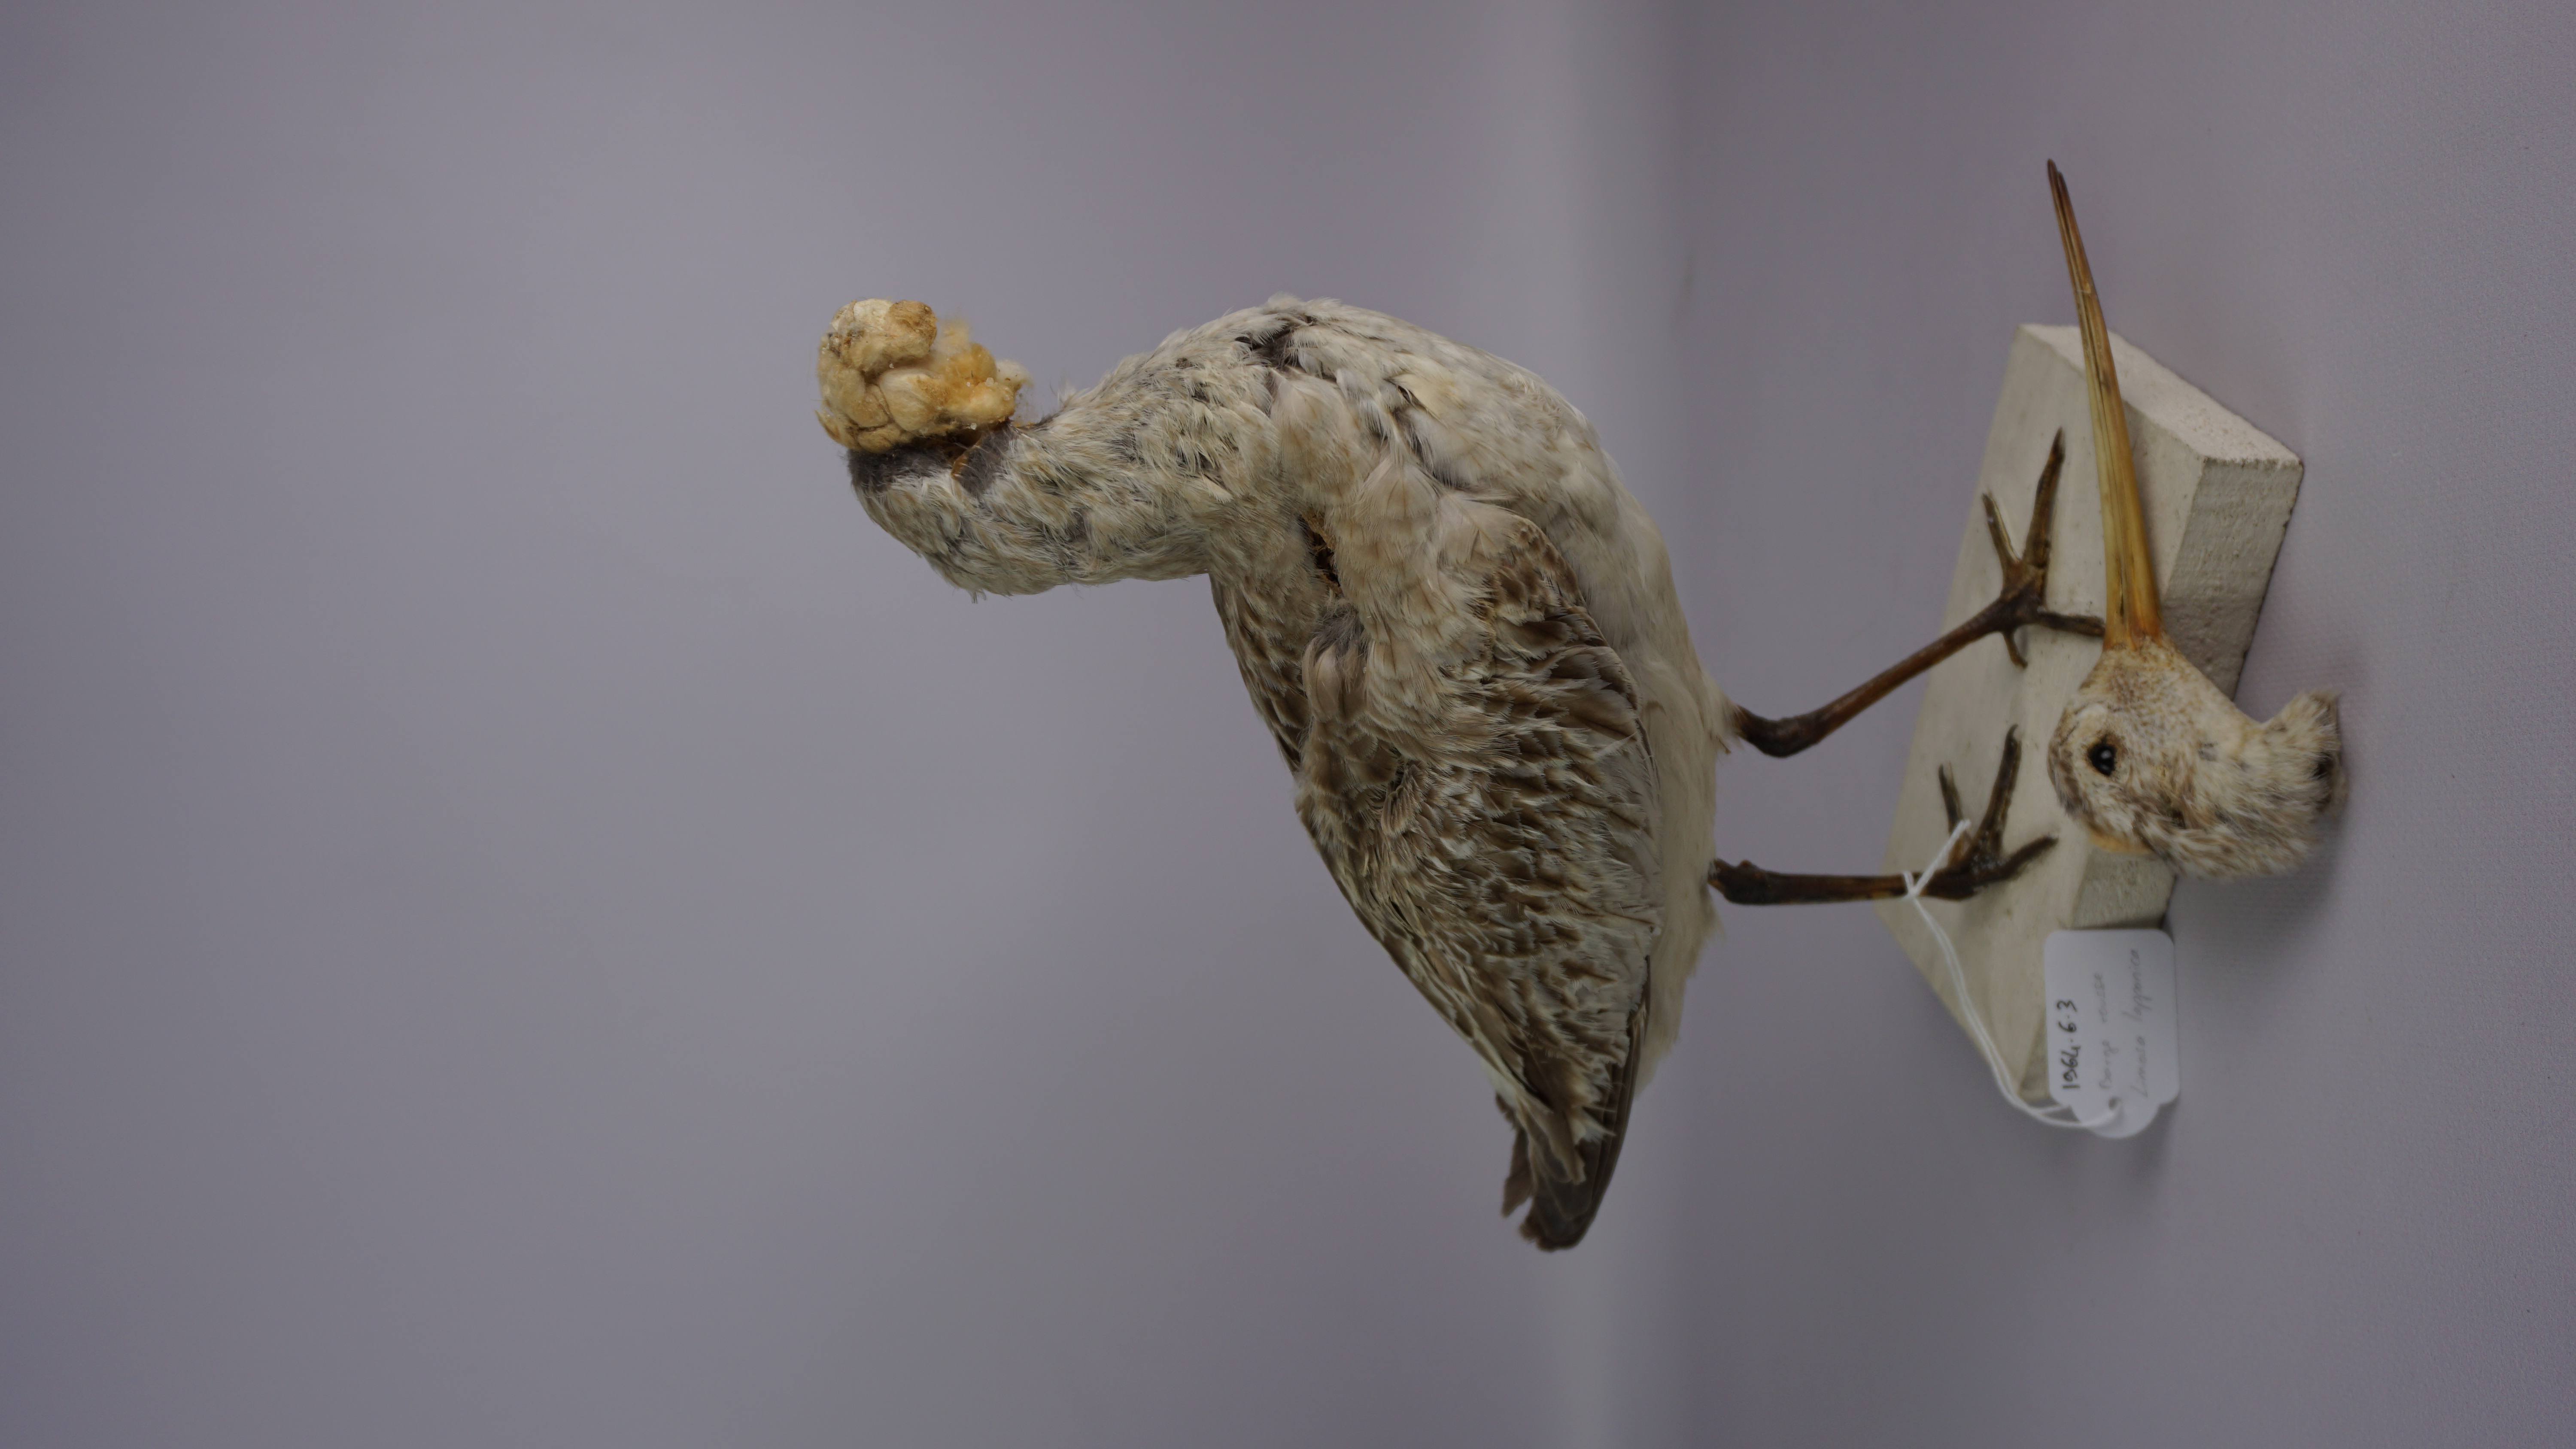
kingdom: Animalia
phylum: Chordata
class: Aves
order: Charadriiformes
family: Scolopacidae
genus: Limosa
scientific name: Limosa lapponica
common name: Bar-tailed godwit
